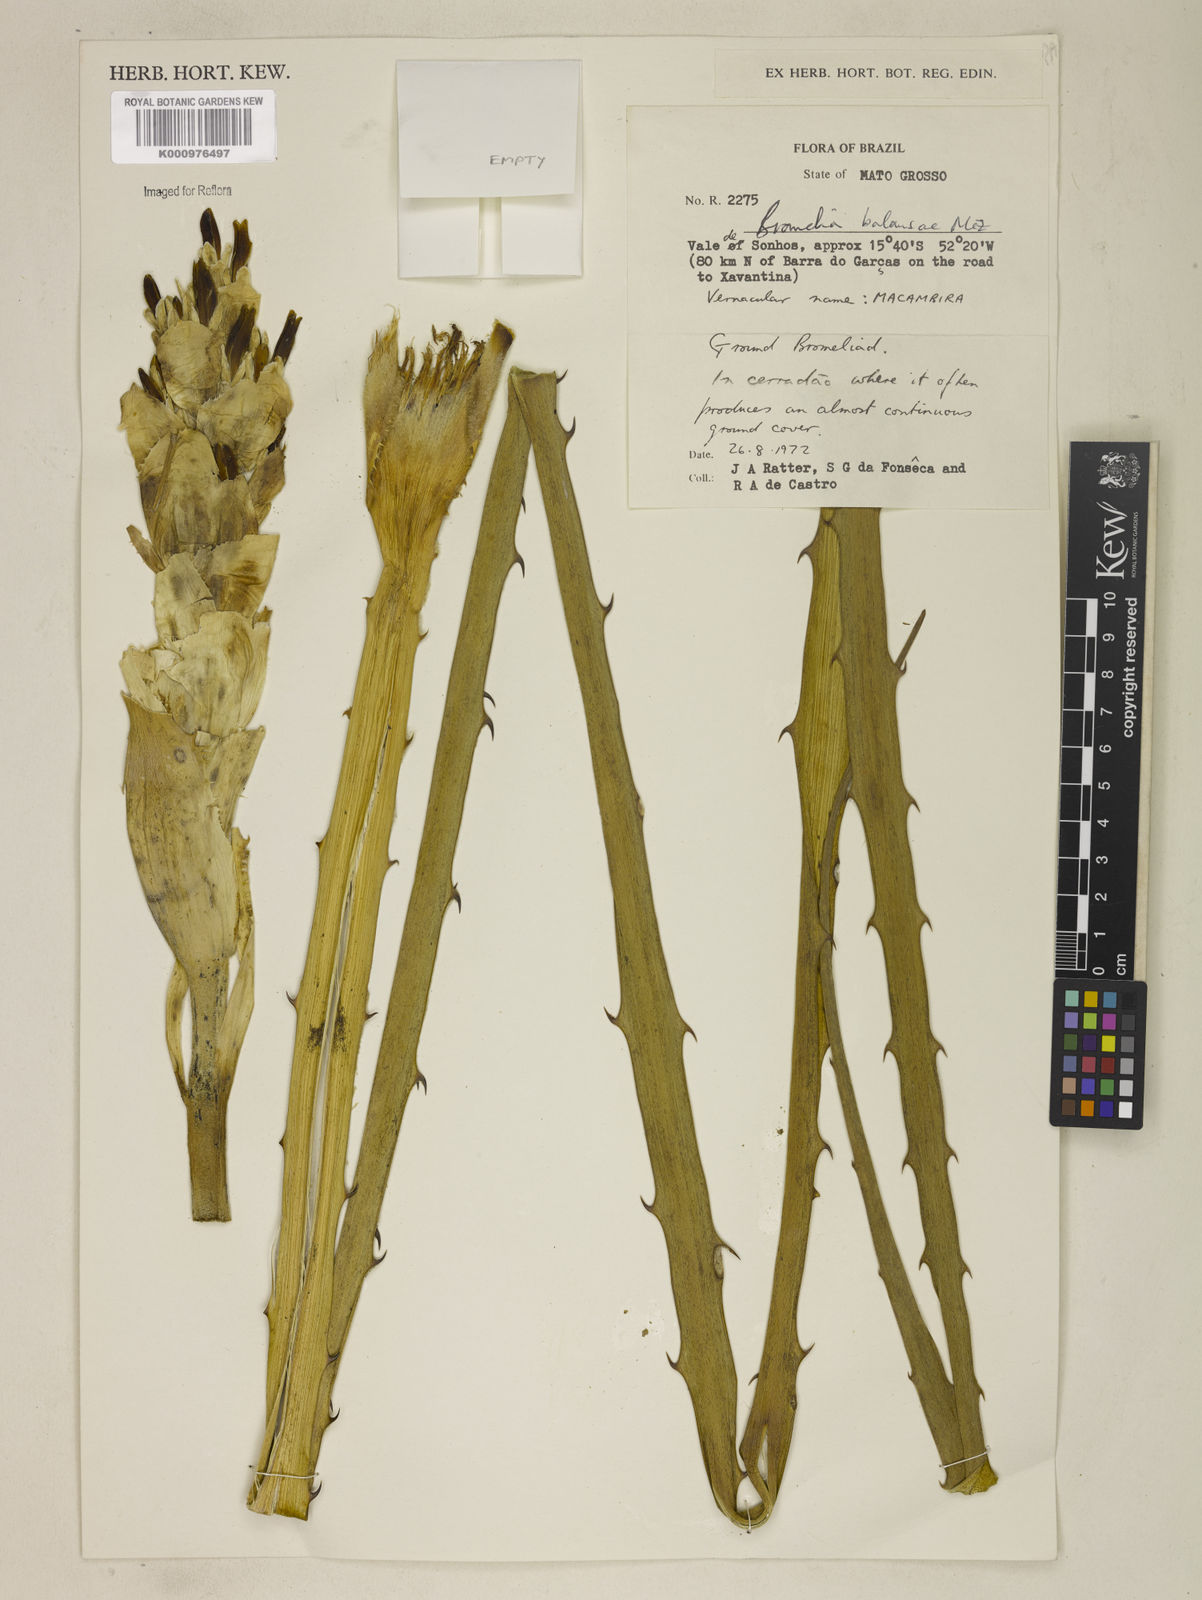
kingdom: Plantae
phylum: Tracheophyta
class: Liliopsida
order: Poales
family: Bromeliaceae
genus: Bromelia
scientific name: Bromelia balansae
